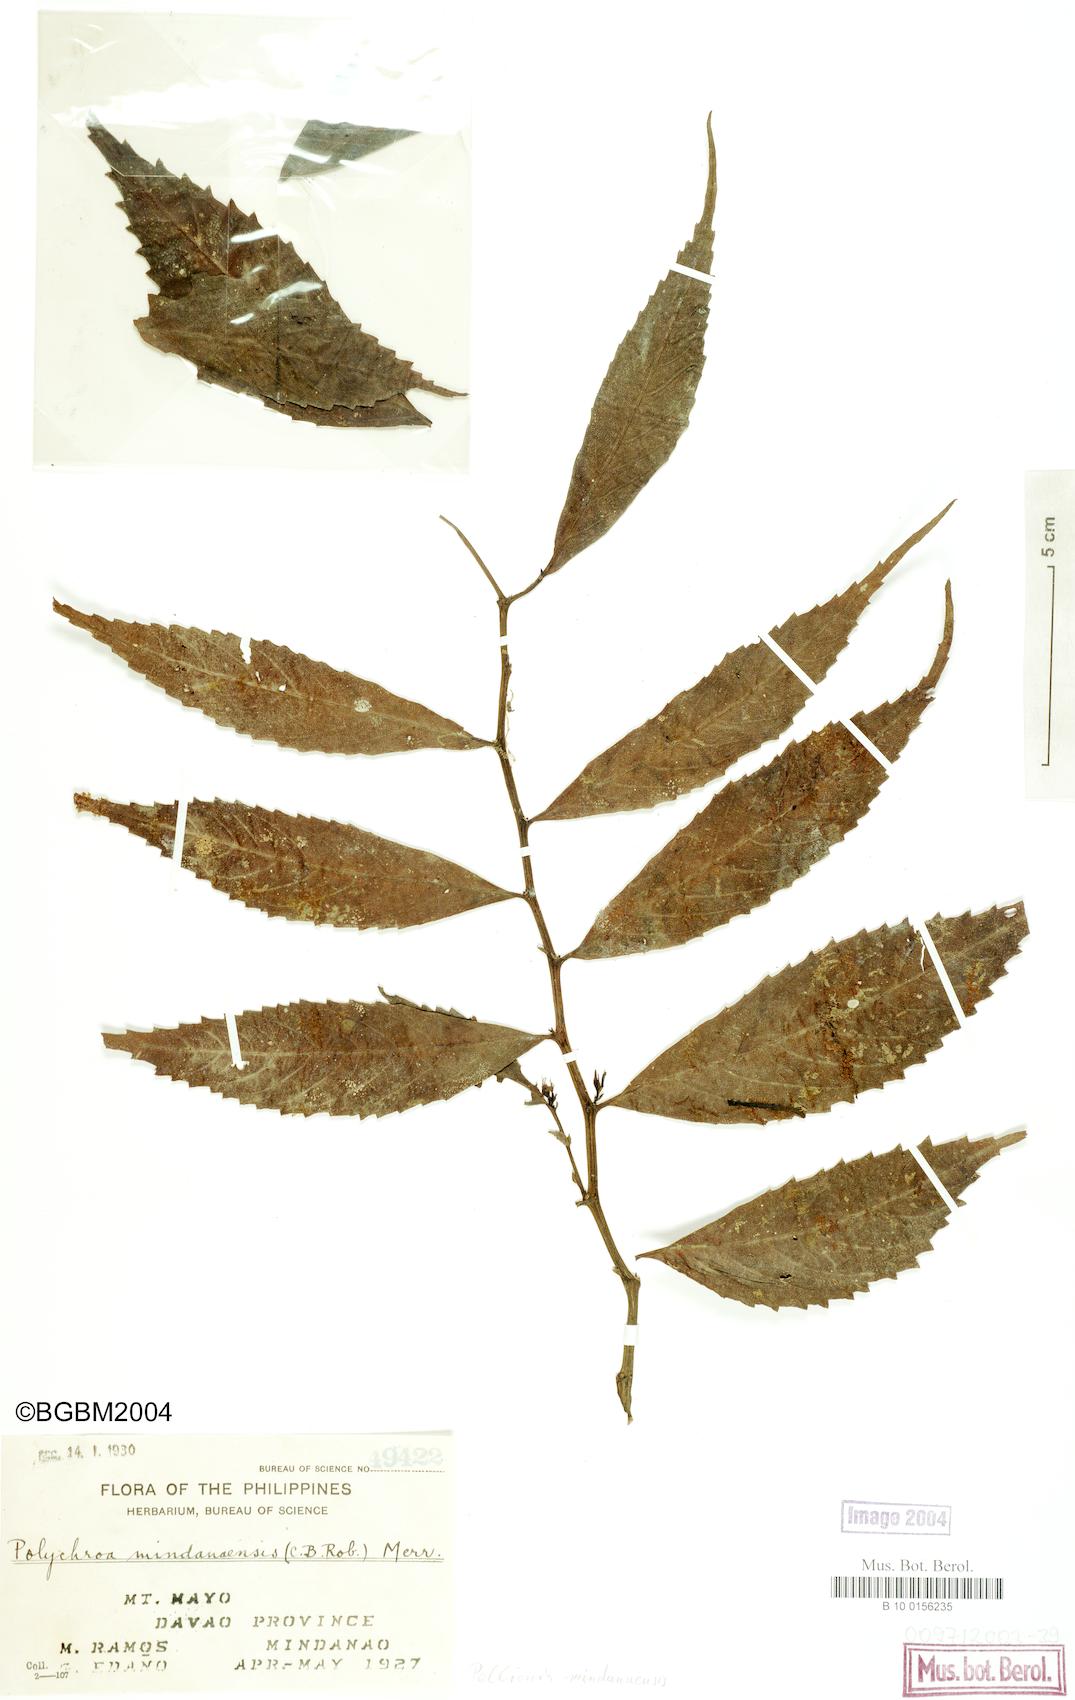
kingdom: Plantae
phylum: Tracheophyta
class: Magnoliopsida
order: Rosales
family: Urticaceae
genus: Elatostema
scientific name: Elatostema mindanaense
